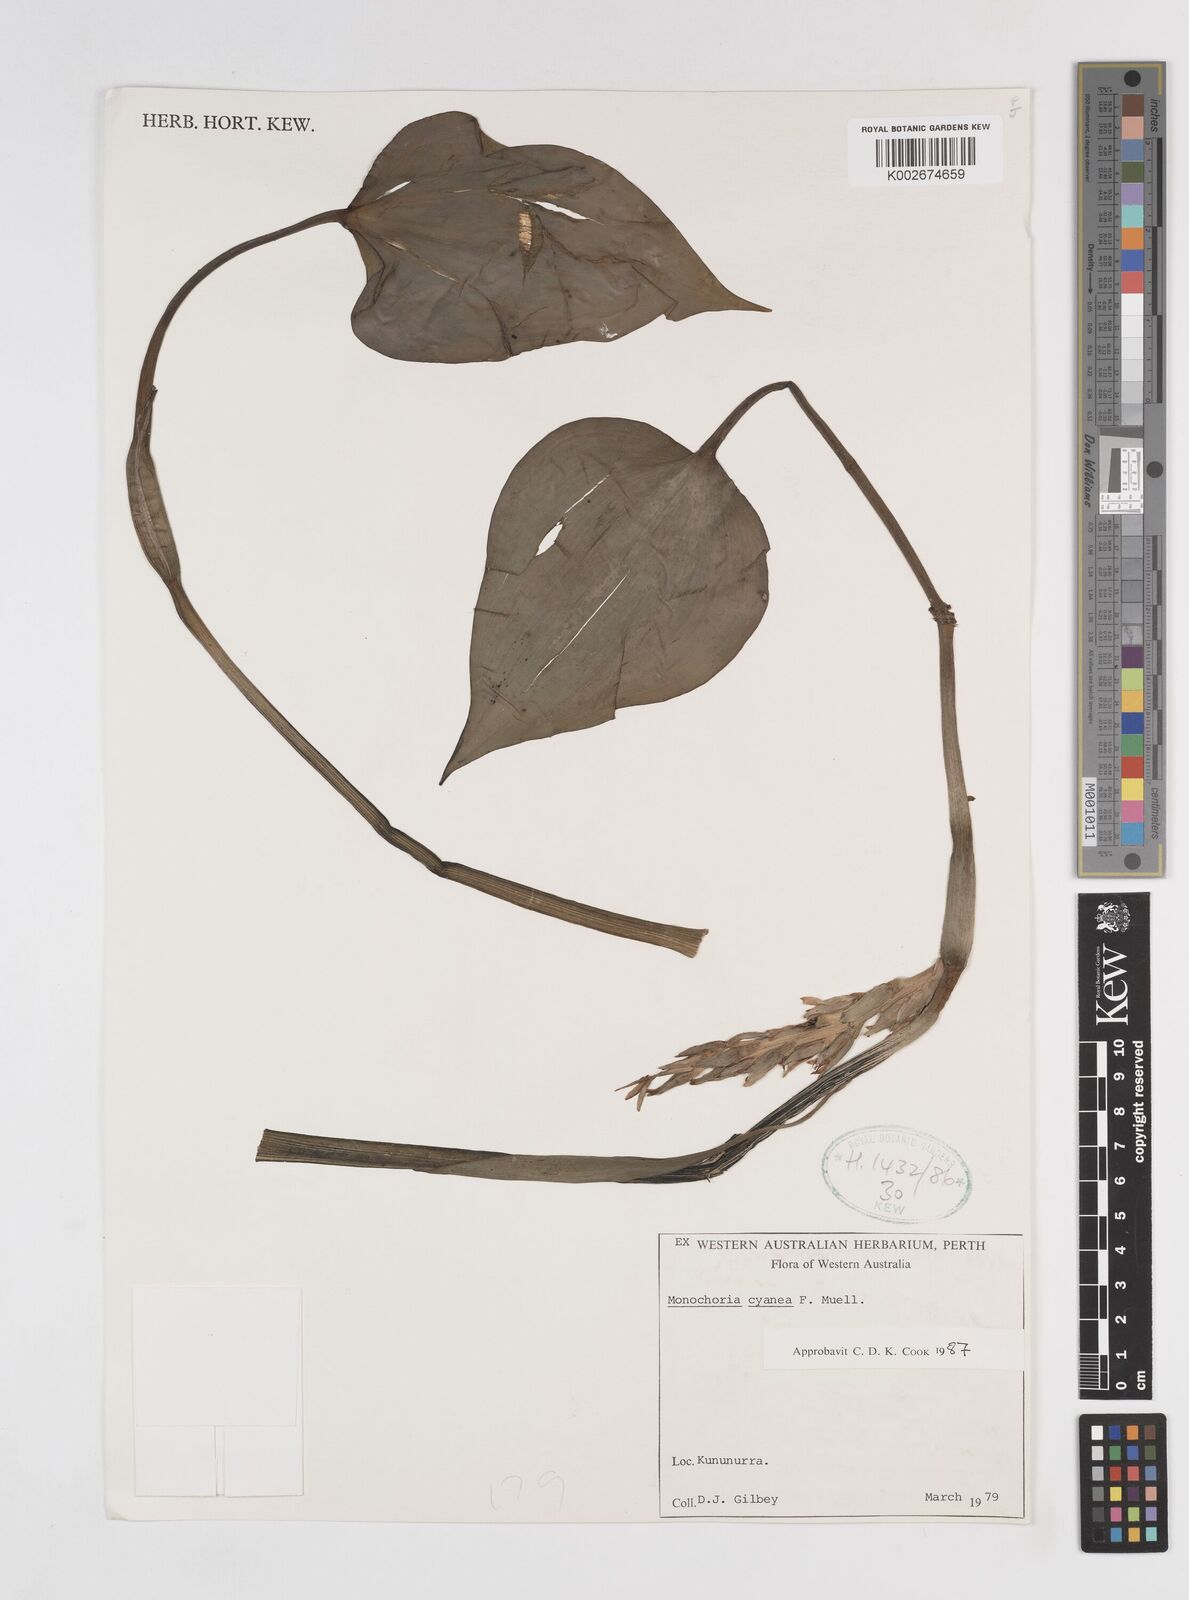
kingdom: Plantae
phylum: Tracheophyta
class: Liliopsida
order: Commelinales
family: Pontederiaceae
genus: Pontederia
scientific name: Pontederia cyanea
